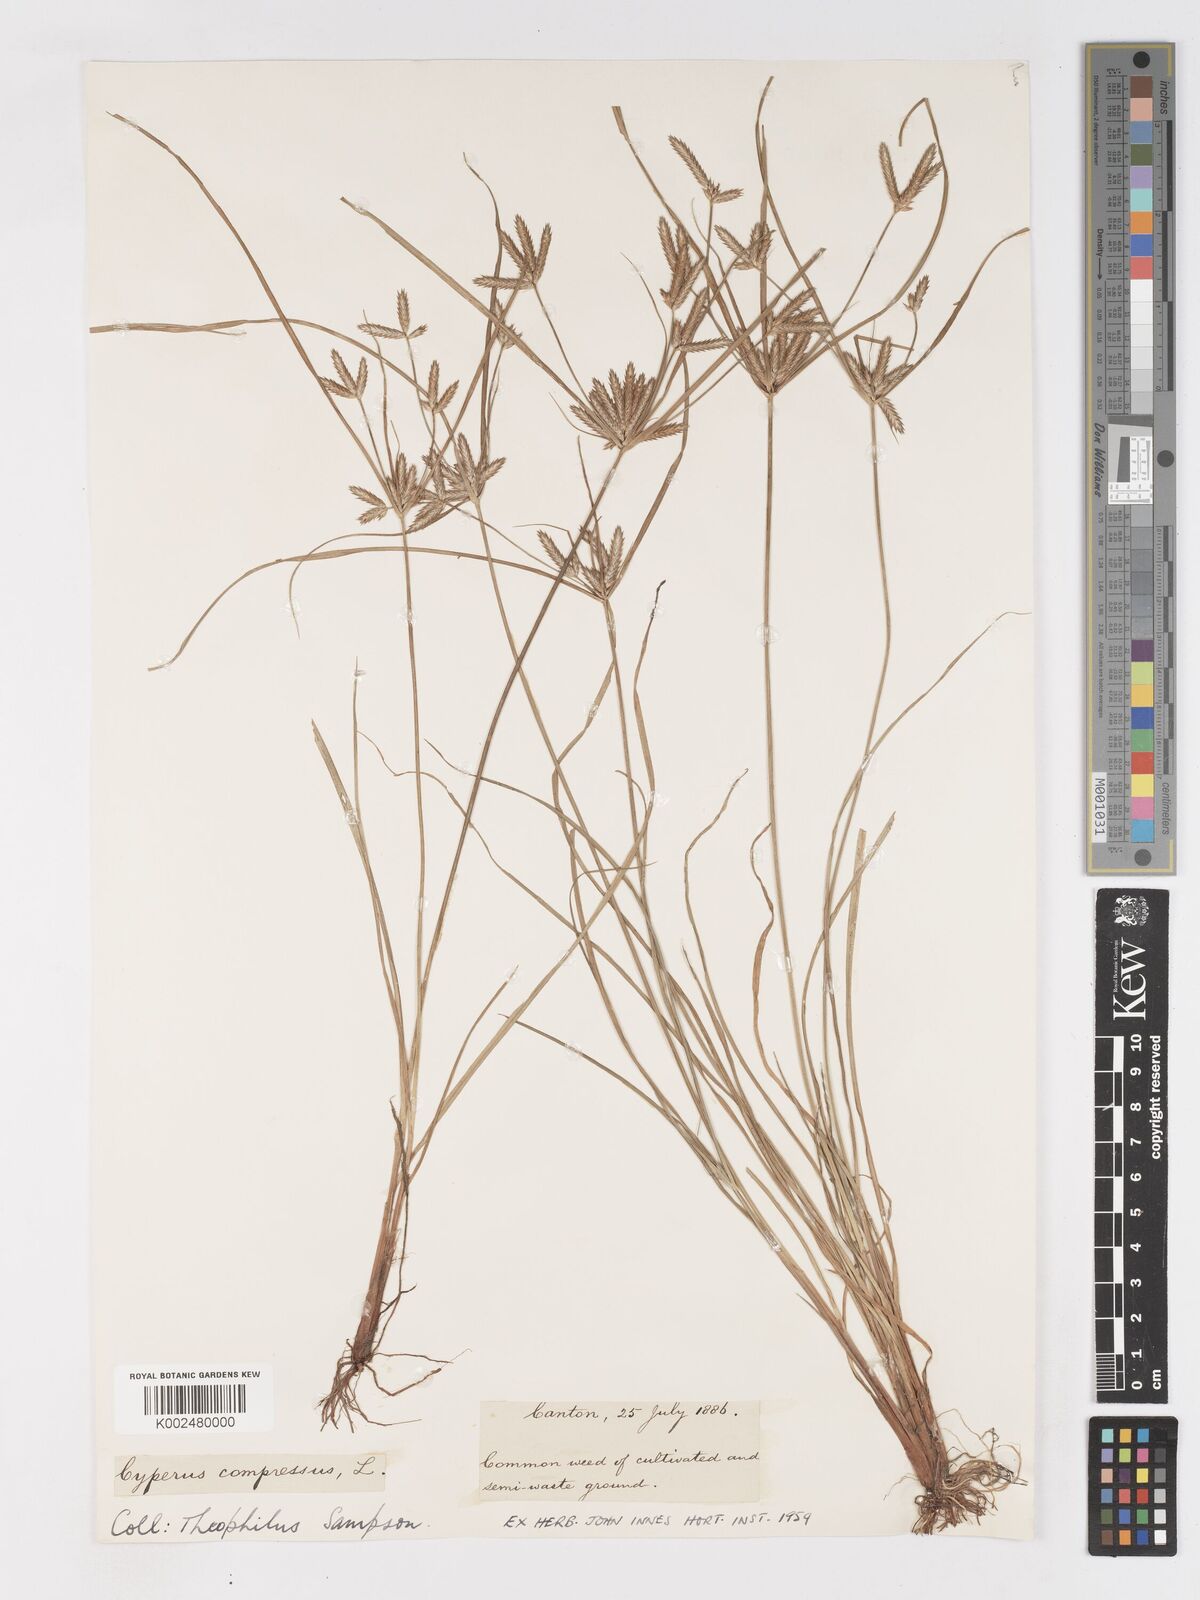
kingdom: Plantae
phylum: Tracheophyta
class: Liliopsida
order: Poales
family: Cyperaceae
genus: Cyperus
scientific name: Cyperus compressus
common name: Poorland flatsedge
